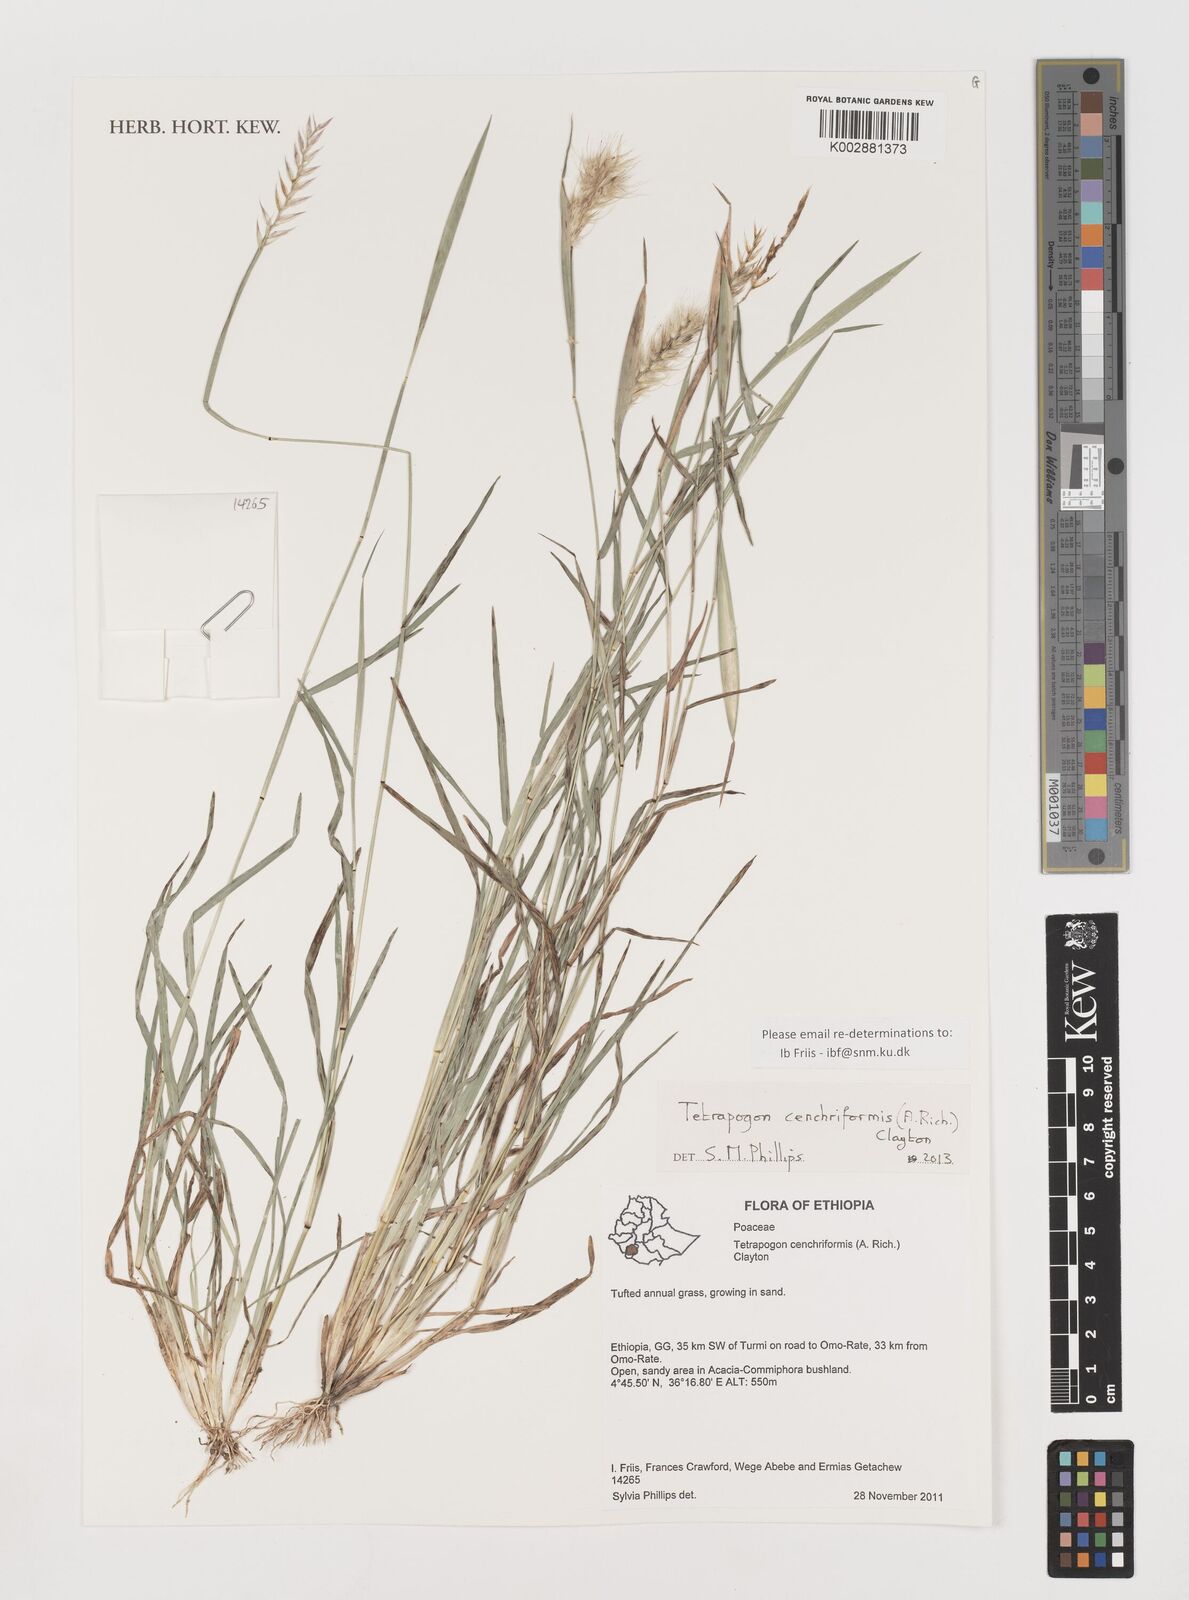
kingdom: Plantae
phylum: Tracheophyta
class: Liliopsida
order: Poales
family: Poaceae
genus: Tetrapogon
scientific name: Tetrapogon cenchriformis
